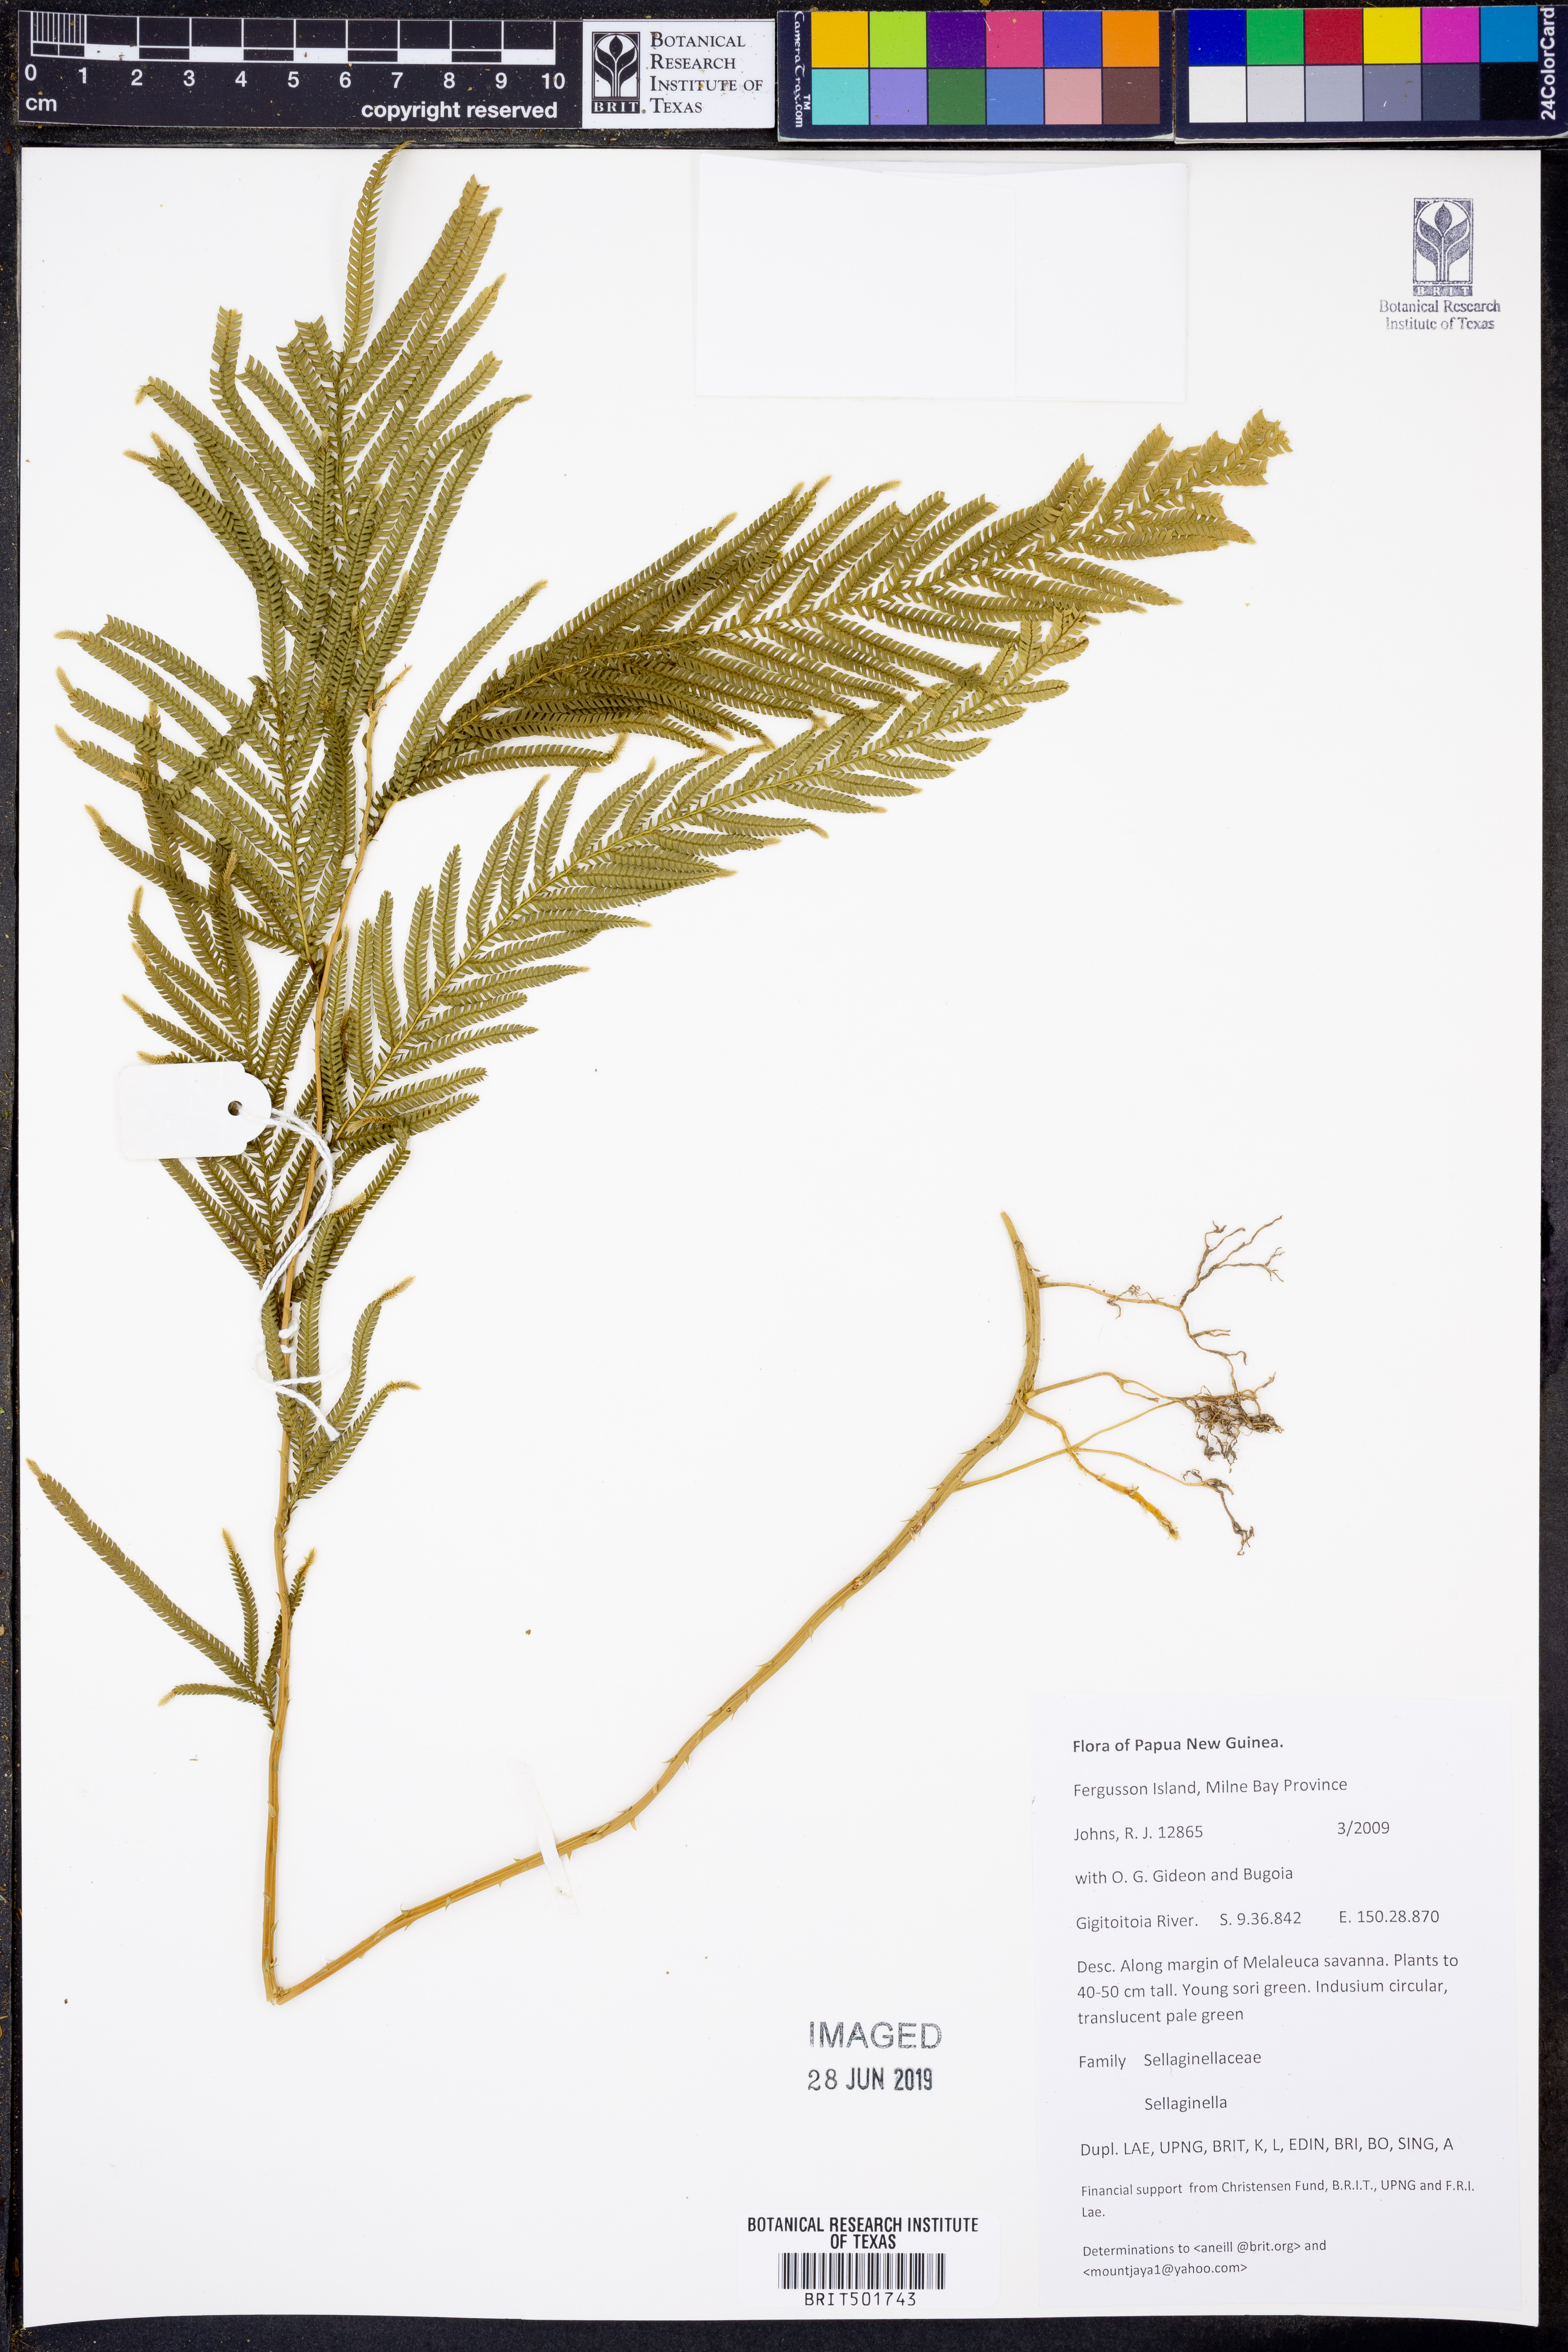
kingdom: Plantae
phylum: Tracheophyta
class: Lycopodiopsida
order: Selaginellales
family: Selaginellaceae
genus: Selaginella
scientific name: Selaginella
